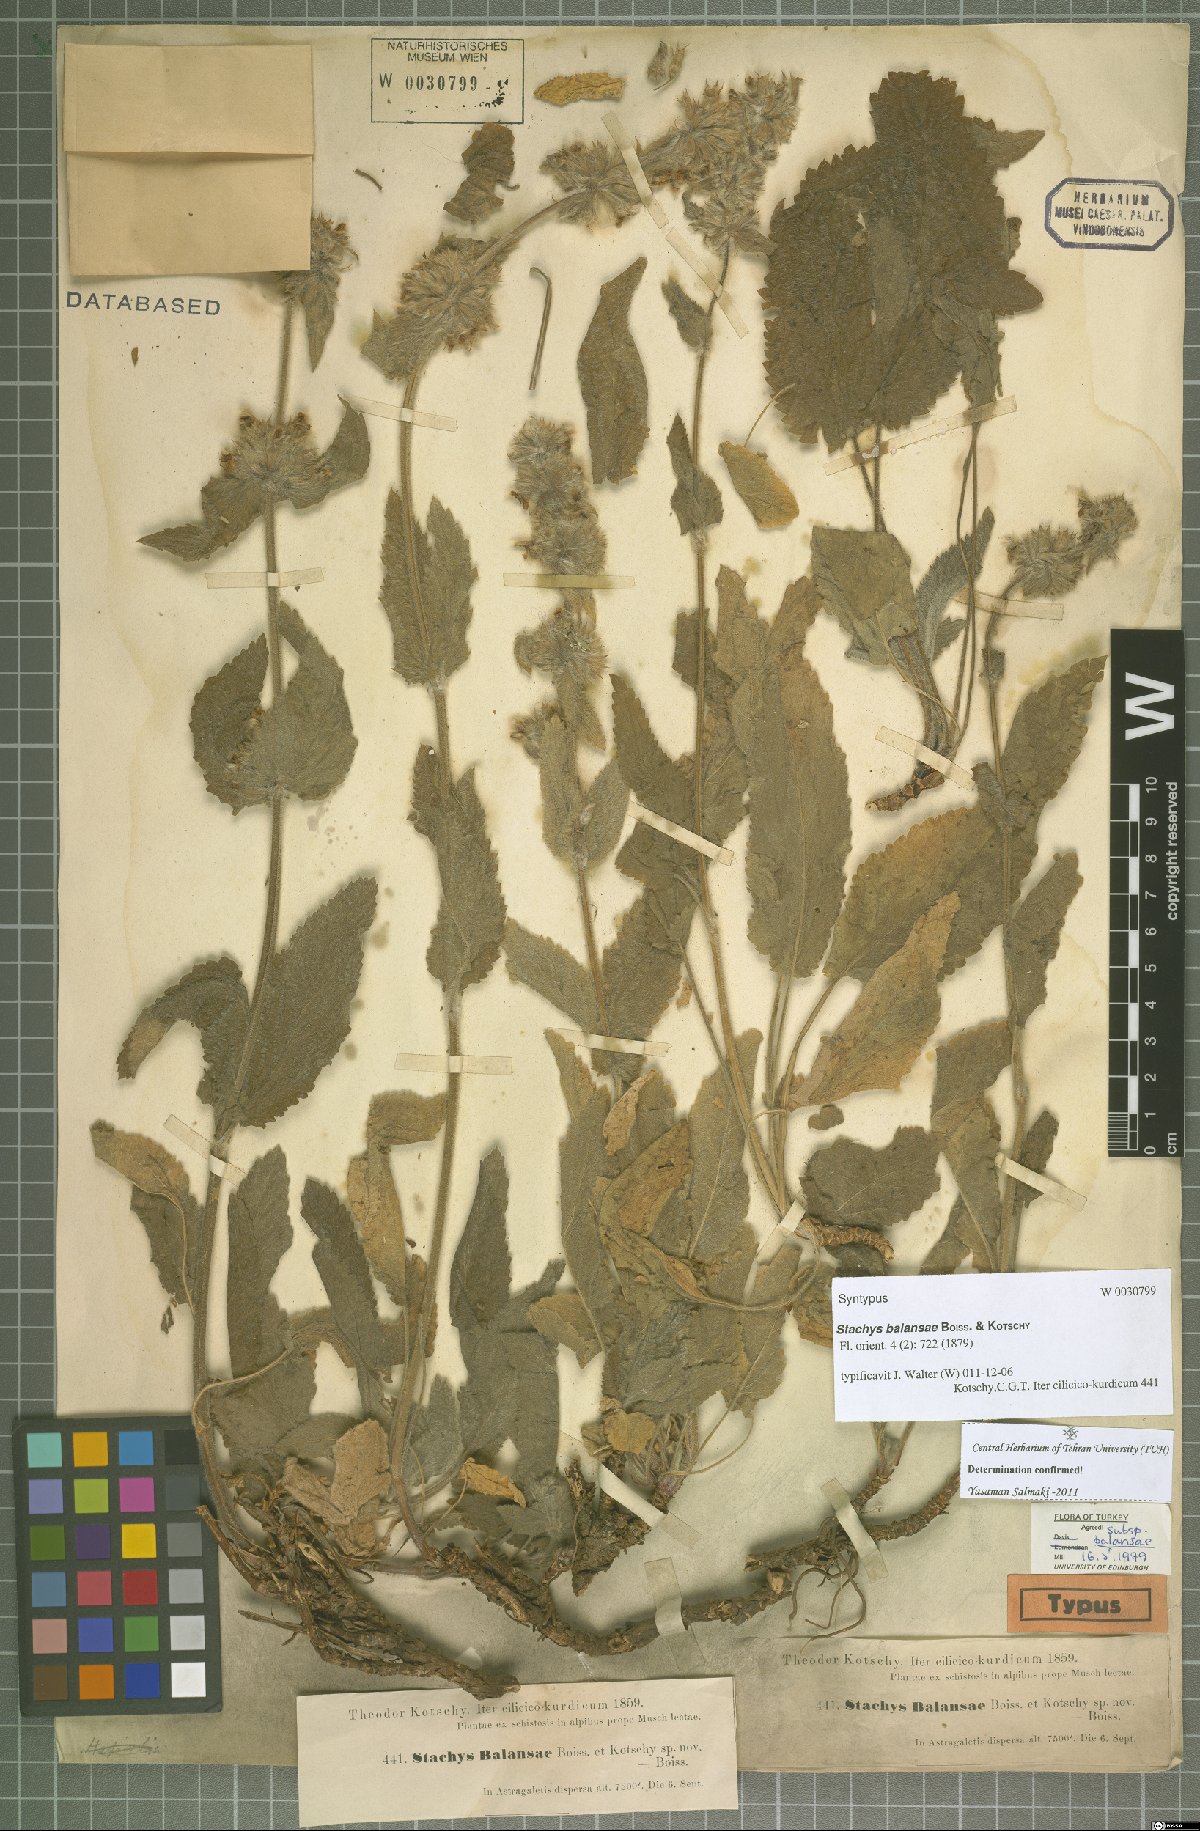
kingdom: Plantae
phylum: Tracheophyta
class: Magnoliopsida
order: Lamiales
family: Lamiaceae
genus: Stachys
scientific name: Stachys balansae
